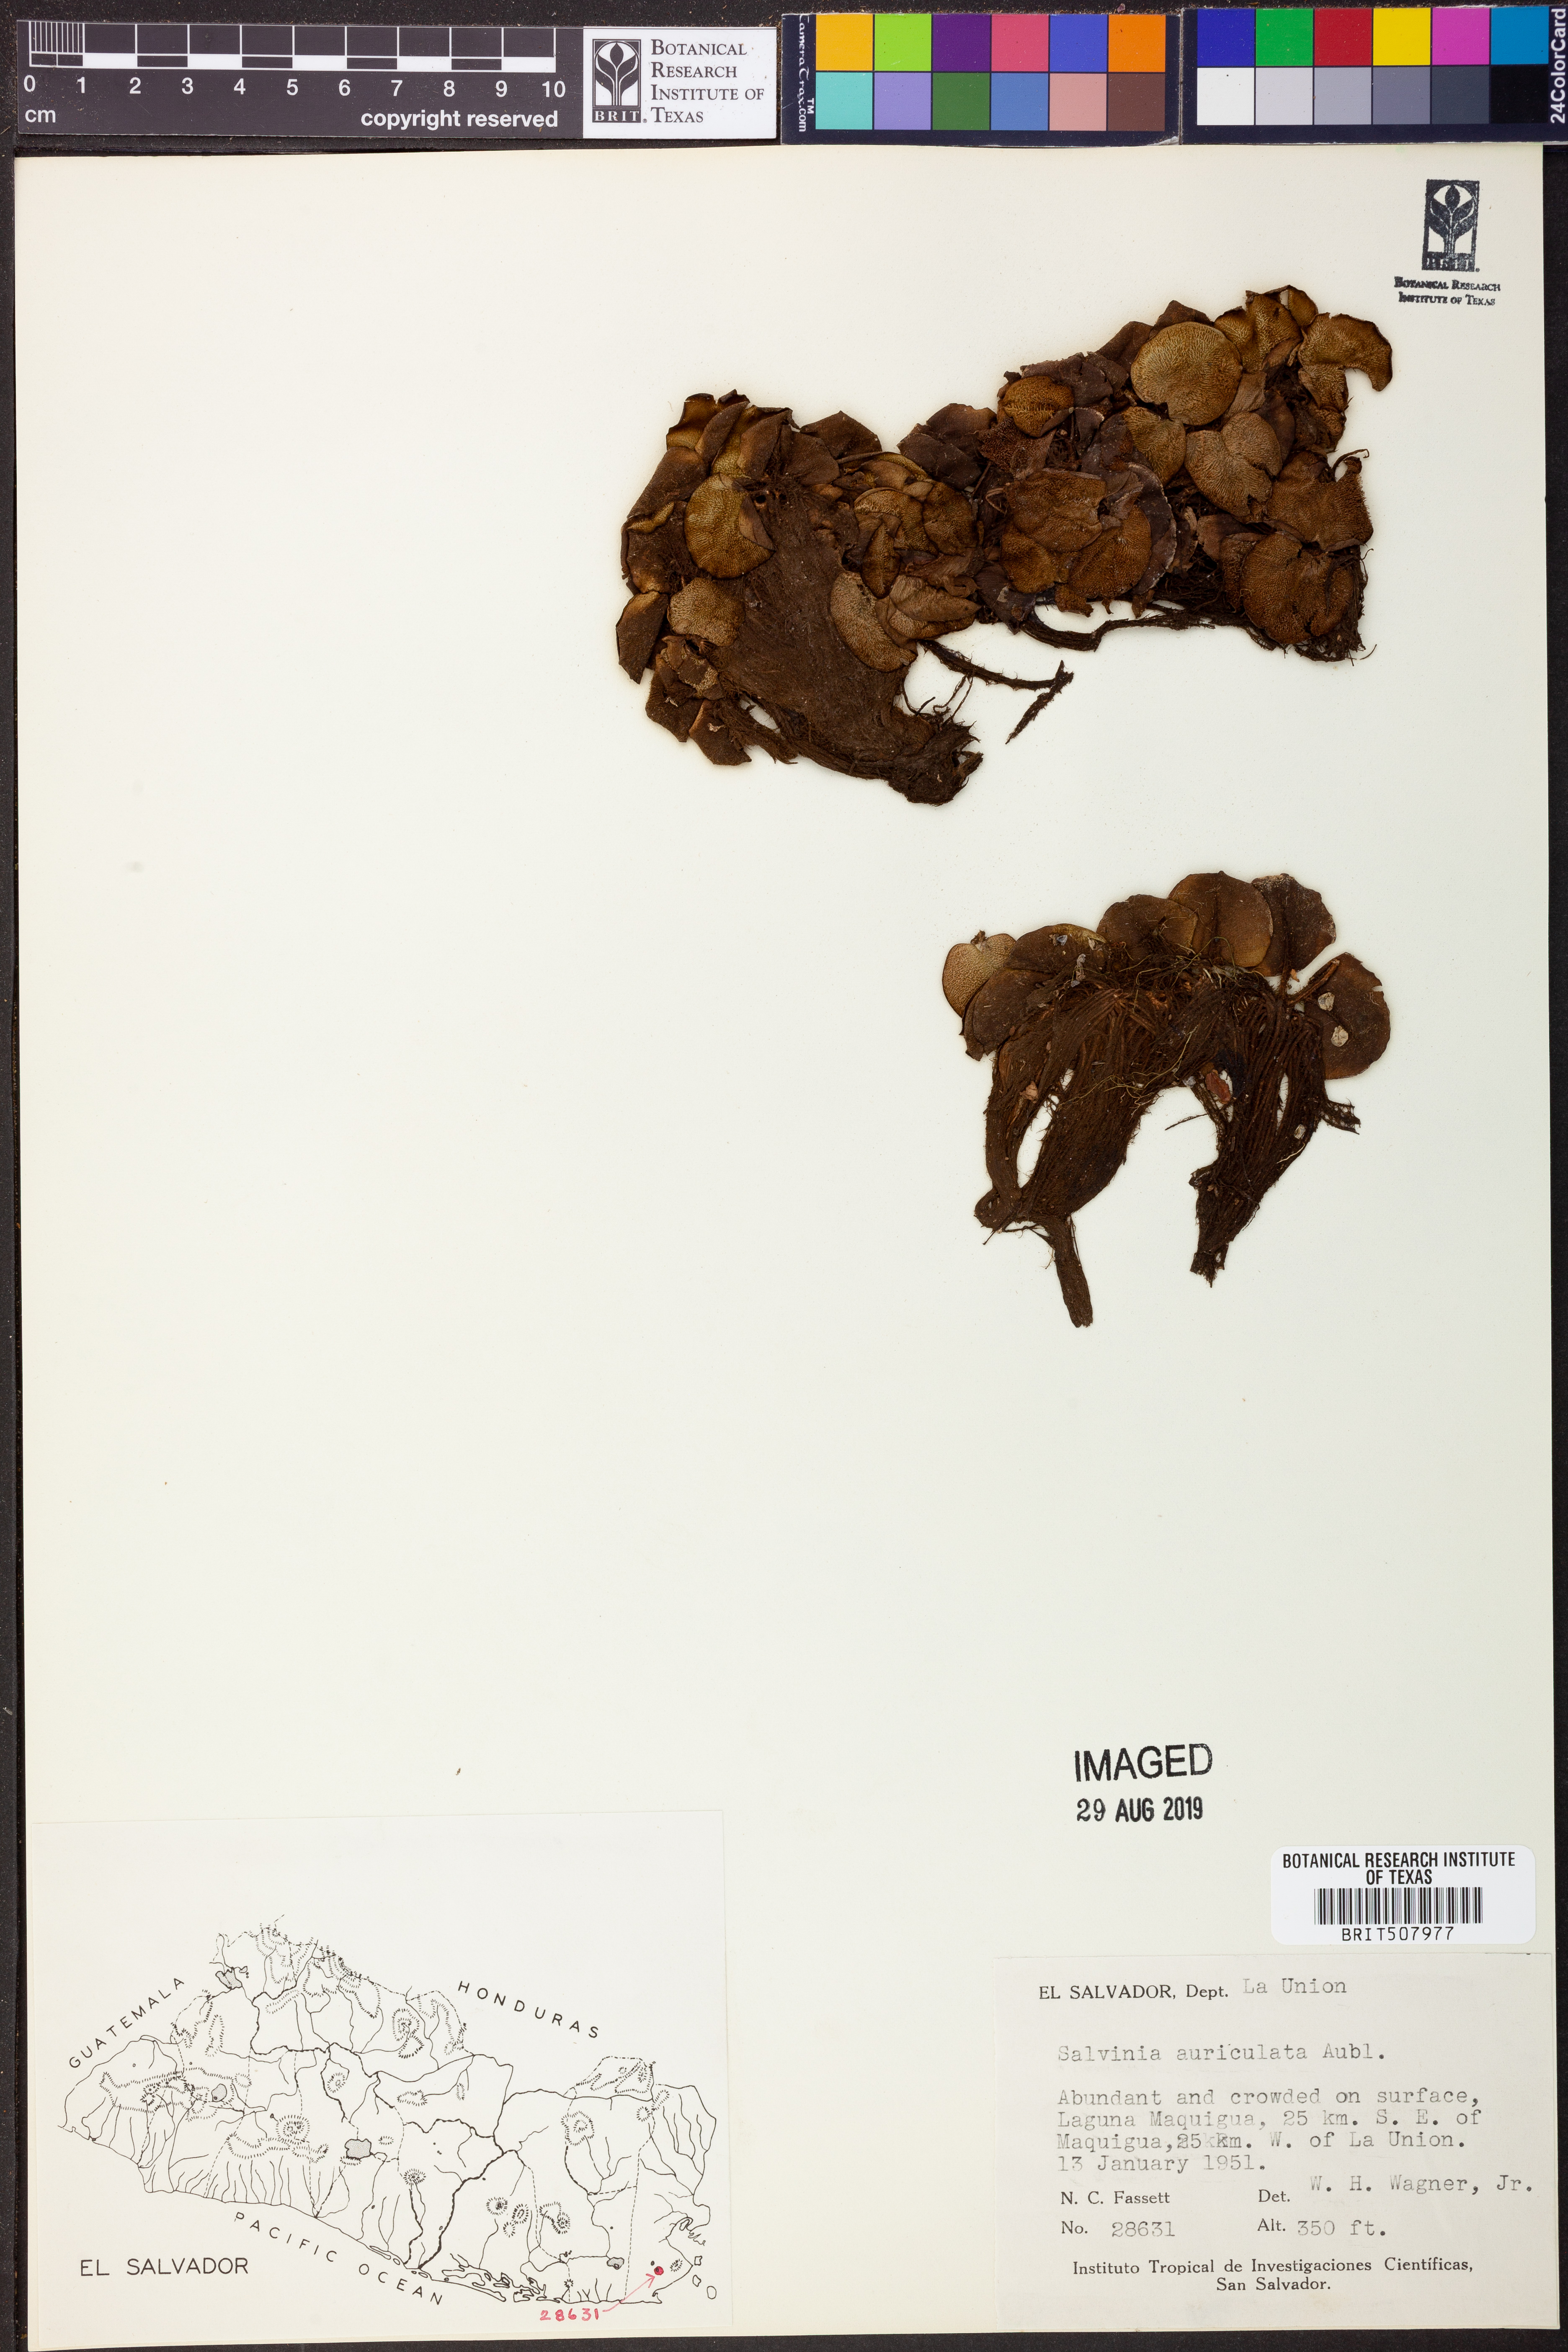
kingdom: Plantae
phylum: Tracheophyta
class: Polypodiopsida
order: Salviniales
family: Salviniaceae
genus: Salvinia
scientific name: Salvinia auriculata
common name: African payal
